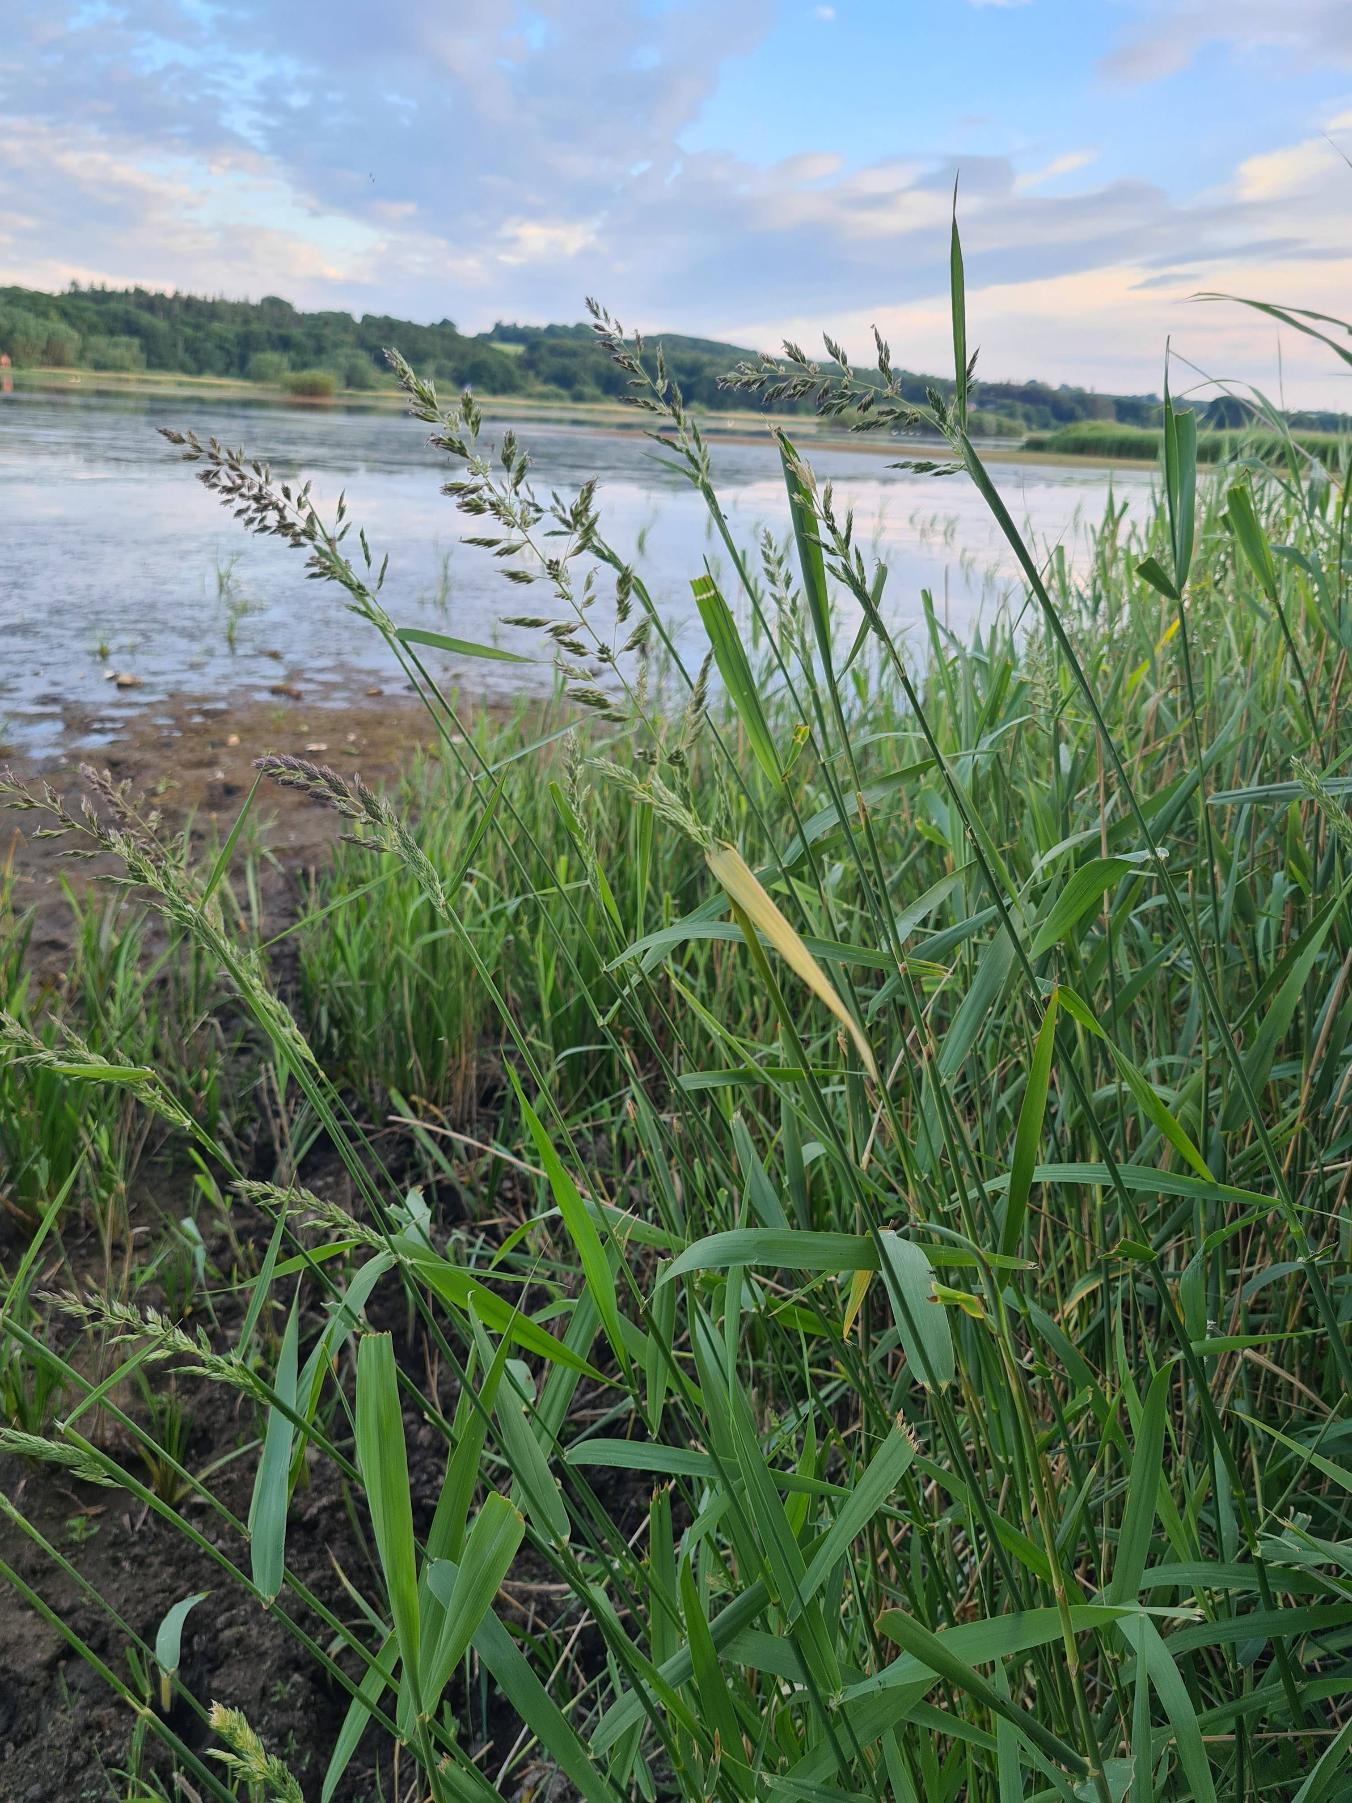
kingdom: Plantae
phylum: Tracheophyta
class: Liliopsida
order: Poales
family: Poaceae
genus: Phalaris
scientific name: Phalaris arundinacea
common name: Rørgræs
